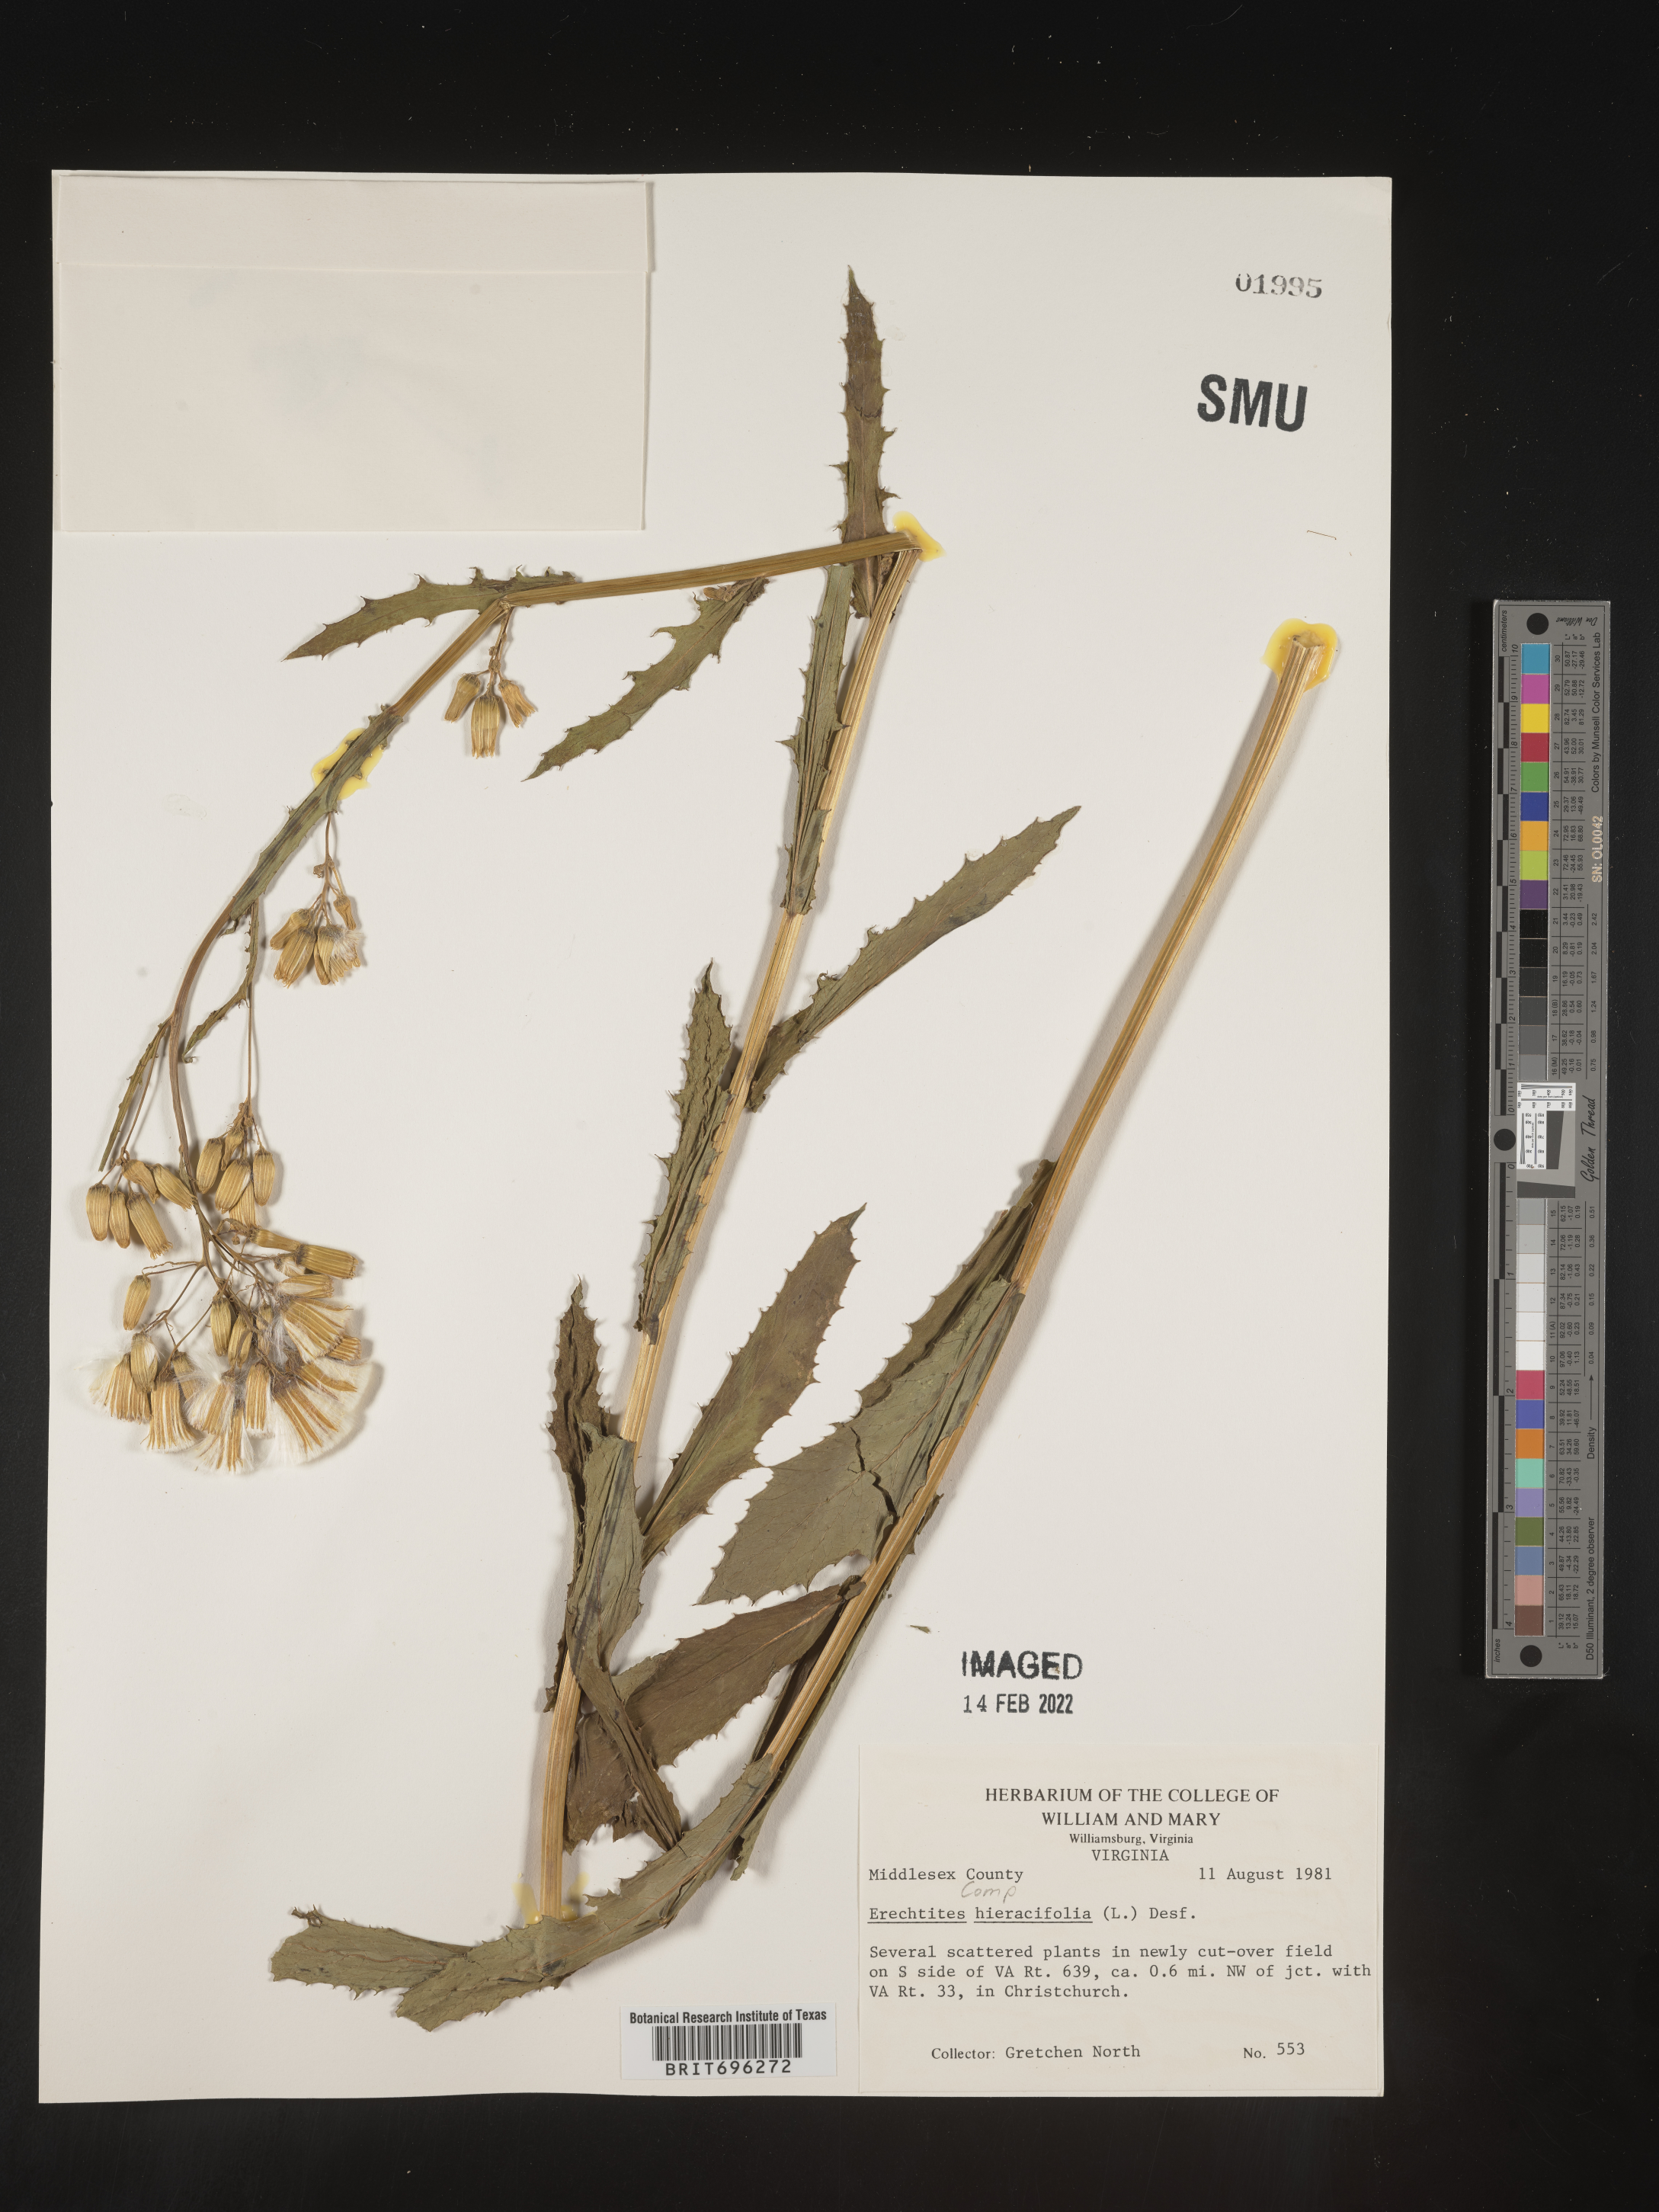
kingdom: Plantae
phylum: Tracheophyta
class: Magnoliopsida
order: Asterales
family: Asteraceae
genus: Erechtites
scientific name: Erechtites hieraciifolius
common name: American burnweed
